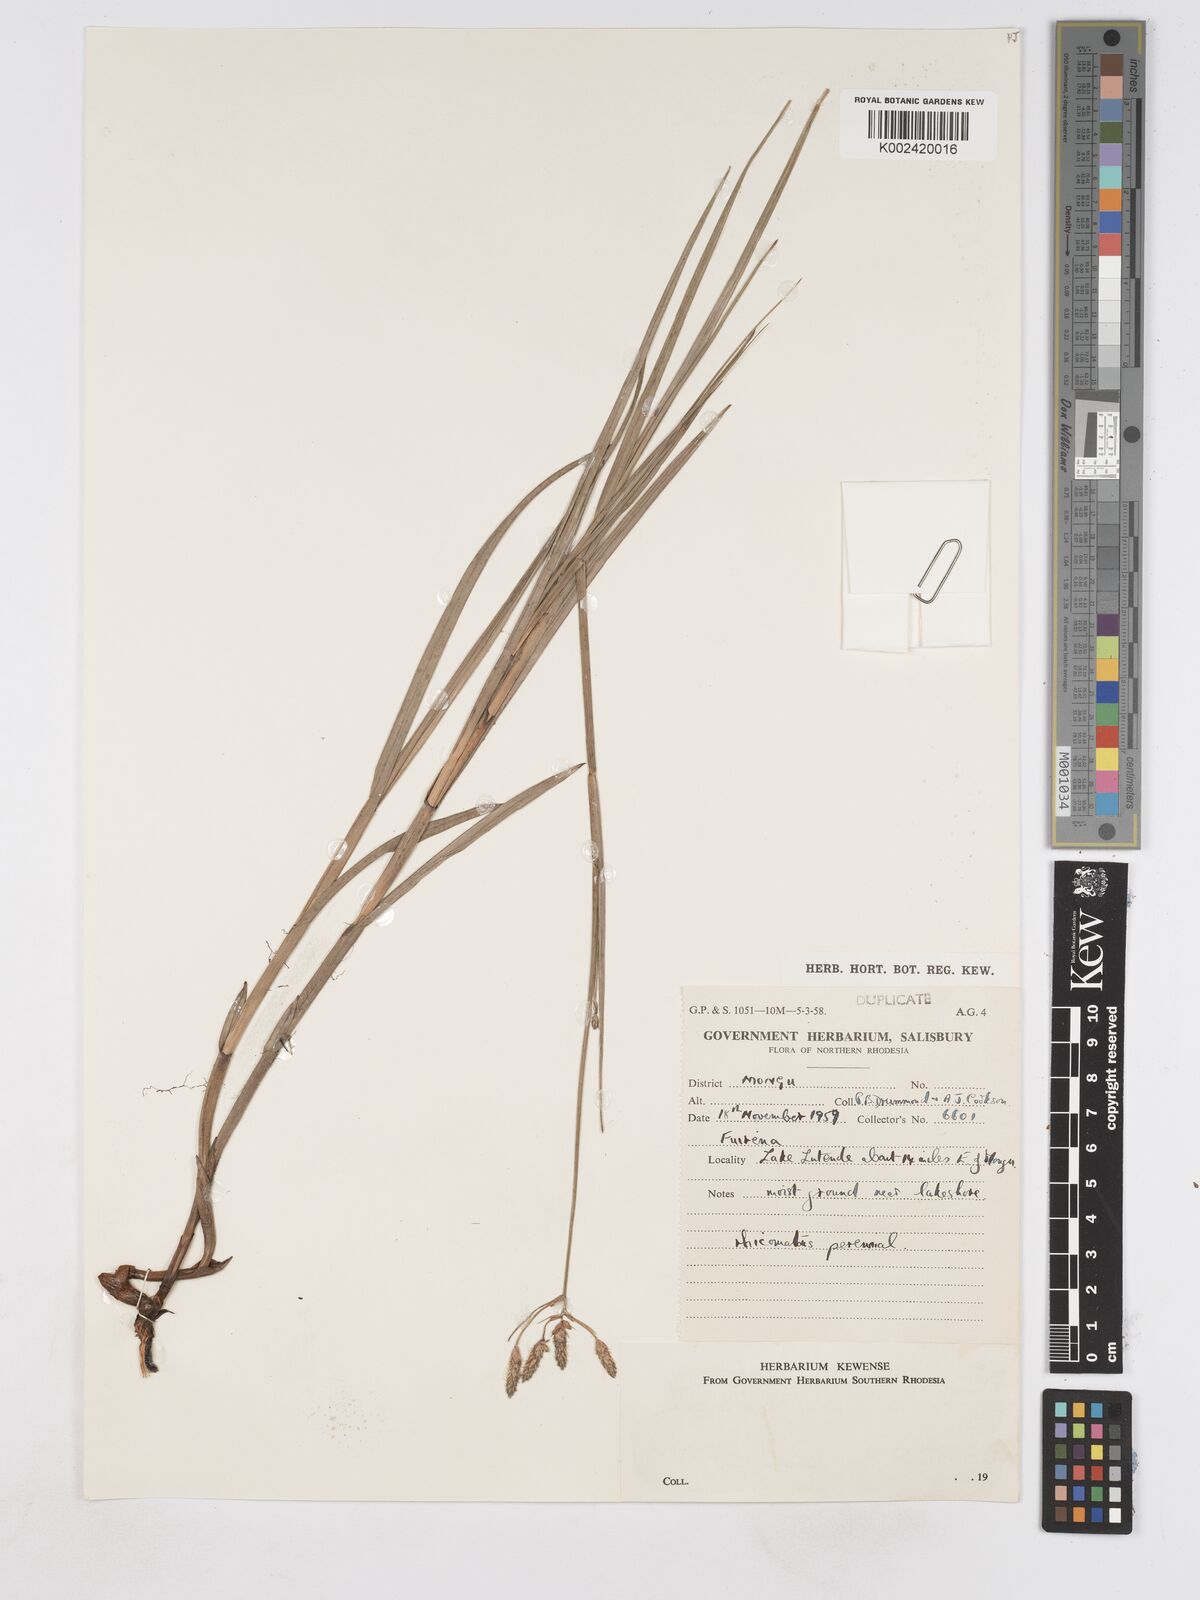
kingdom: Plantae
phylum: Tracheophyta
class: Liliopsida
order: Poales
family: Cyperaceae
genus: Fuirena
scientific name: Fuirena ecklonii
